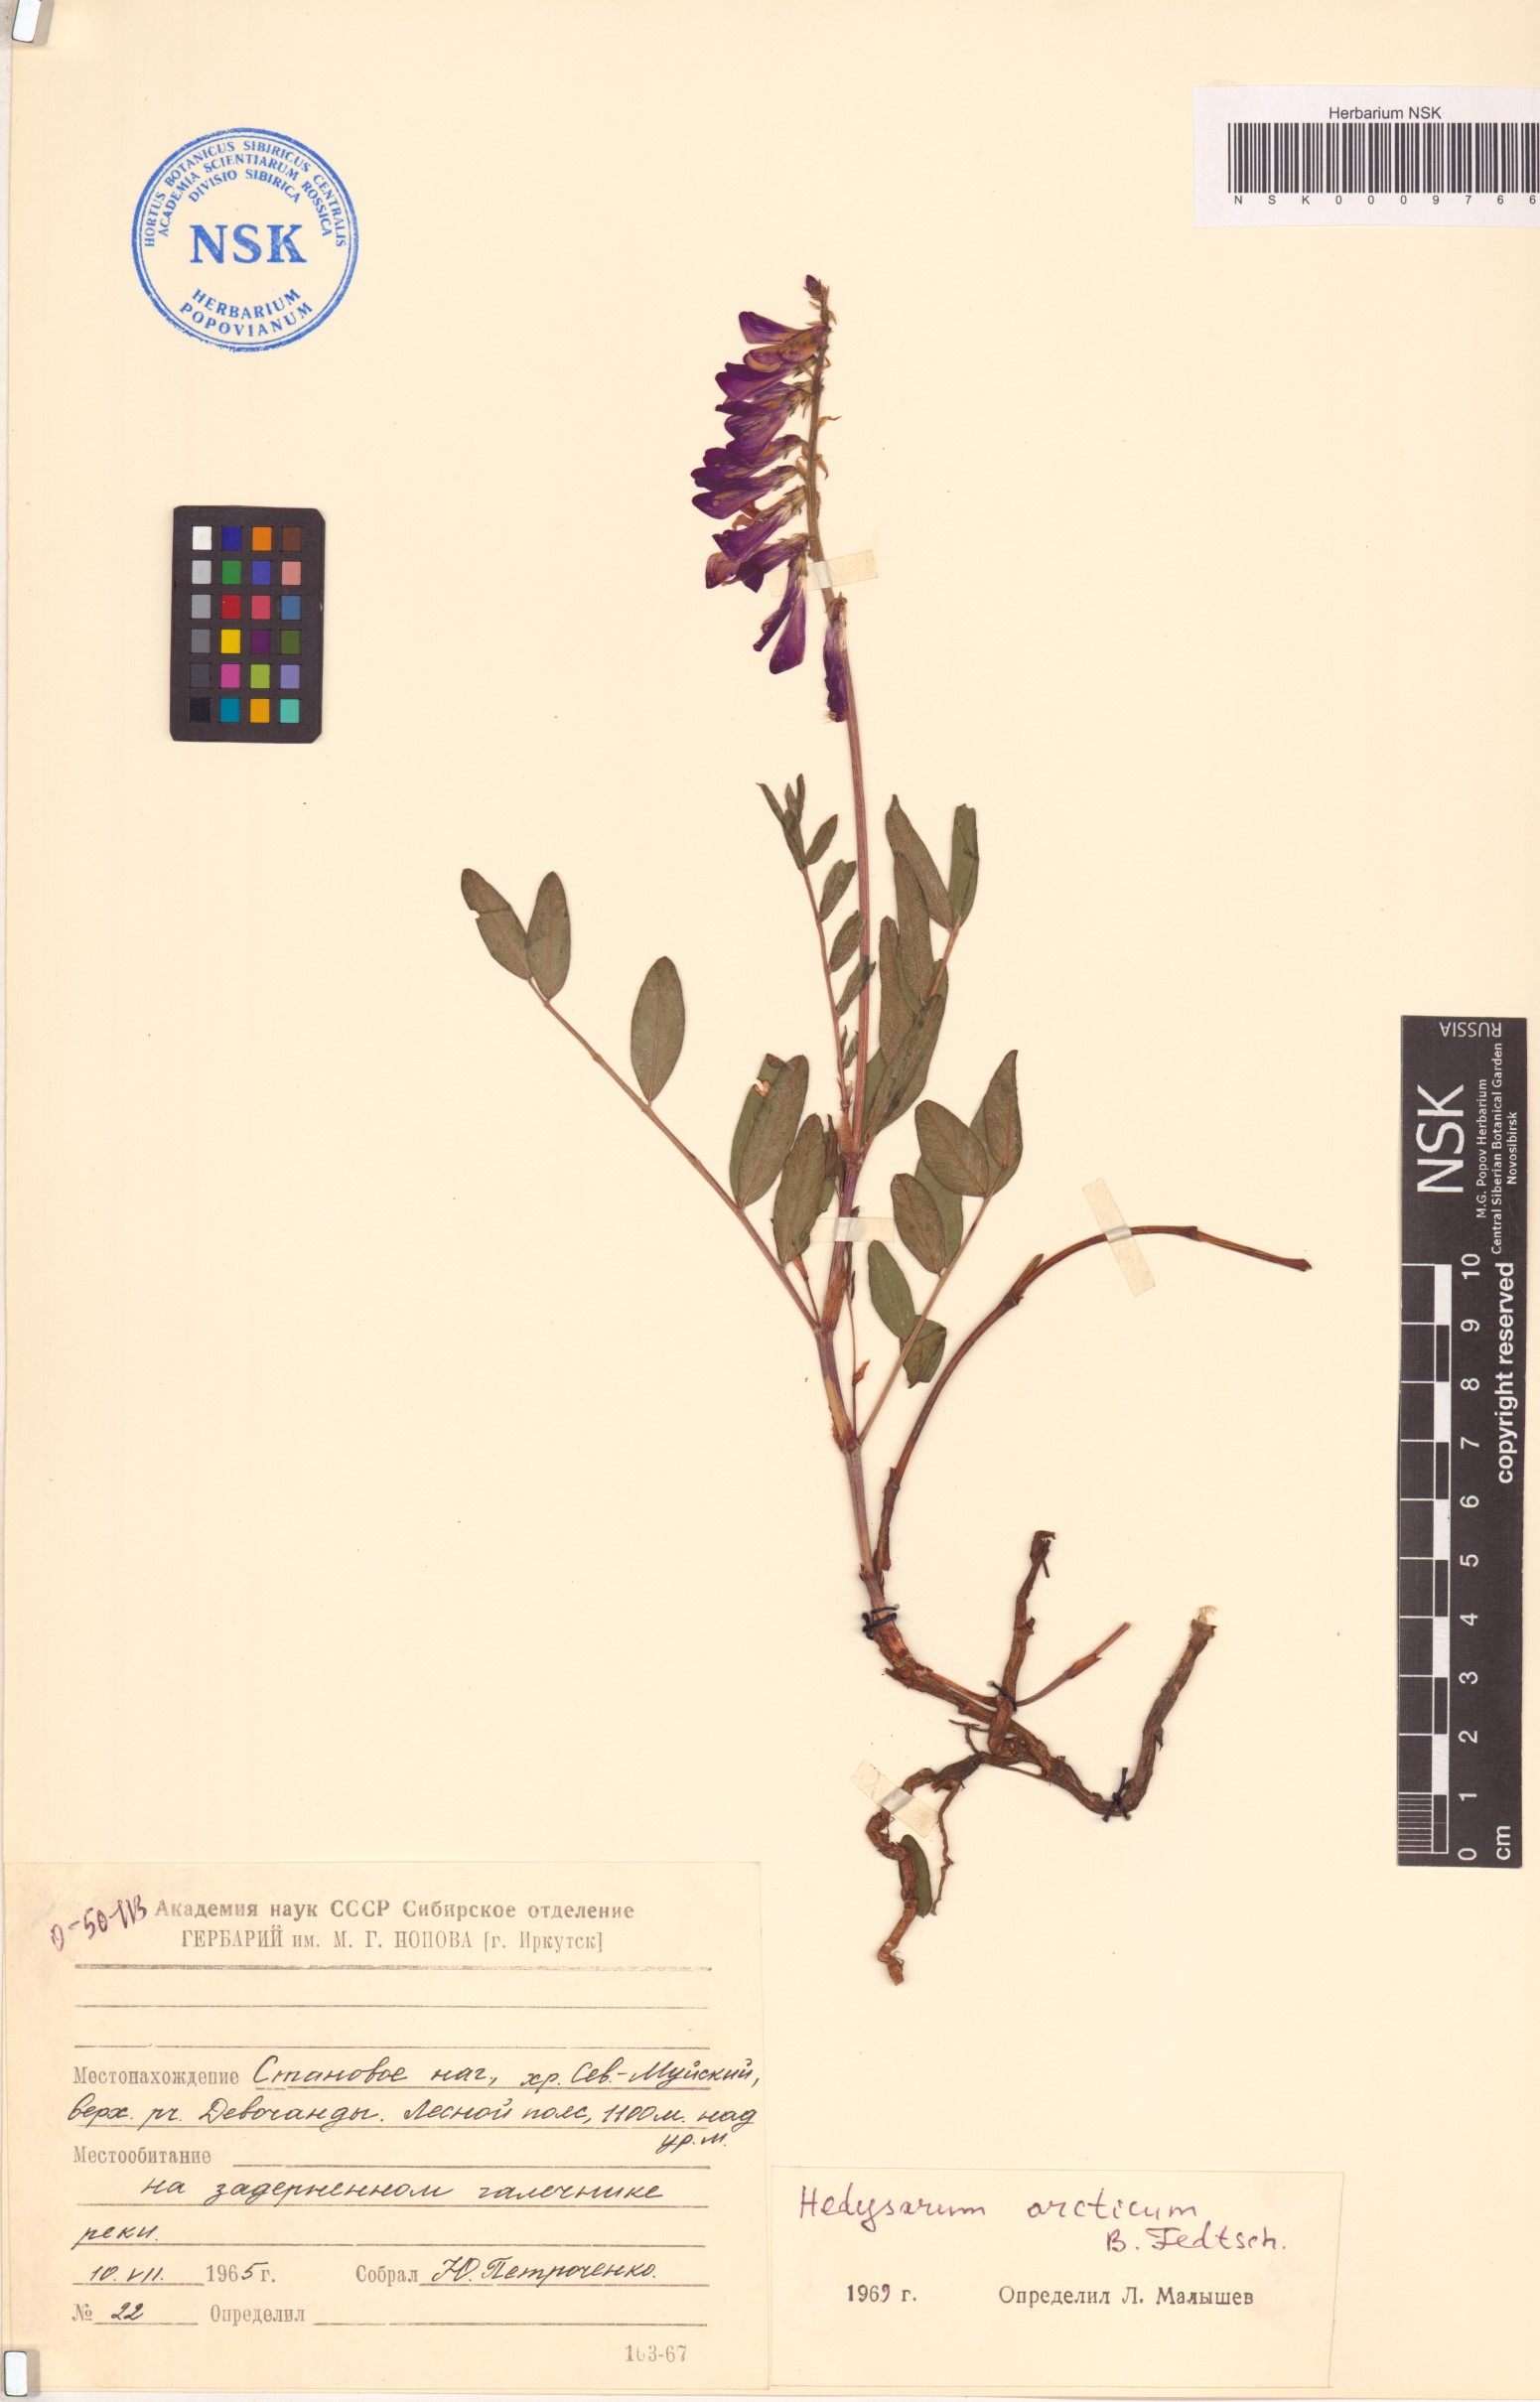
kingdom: Plantae
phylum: Tracheophyta
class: Magnoliopsida
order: Fabales
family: Fabaceae
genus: Hedysarum
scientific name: Hedysarum hedysaroides
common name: Alpine french-honeysuckle
